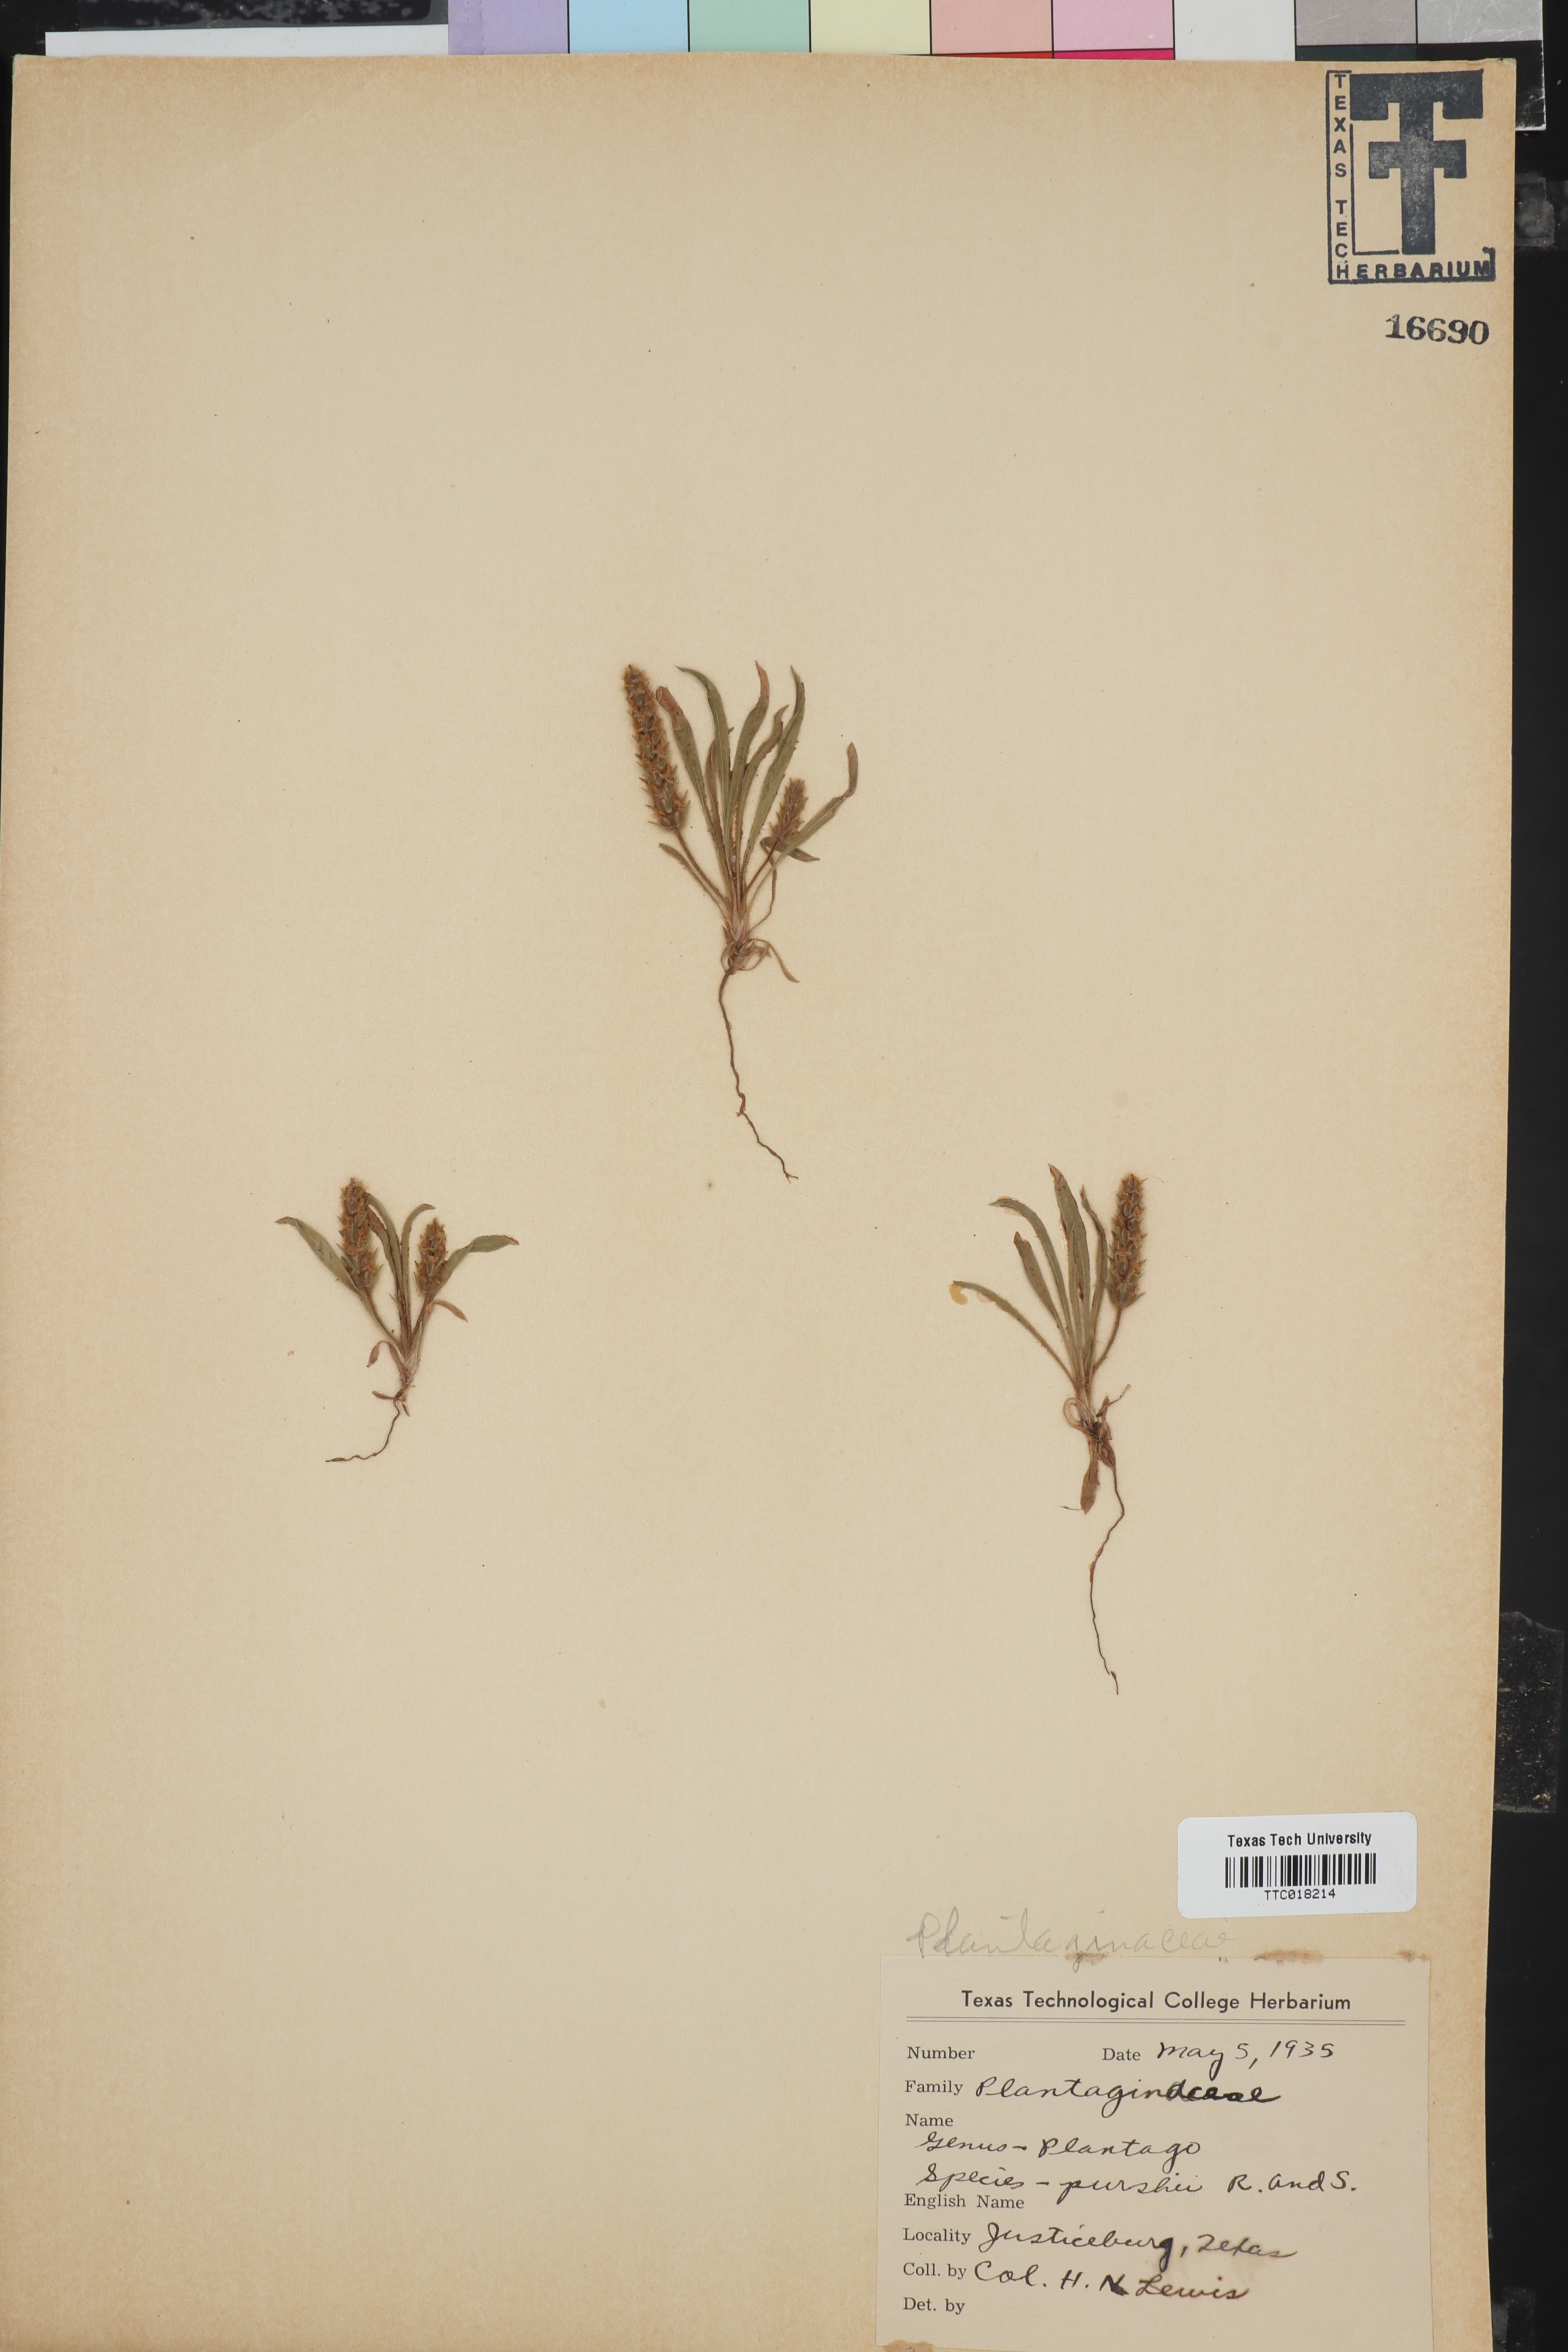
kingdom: Plantae
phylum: Tracheophyta
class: Magnoliopsida
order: Lamiales
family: Plantaginaceae
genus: Plantago
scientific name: Plantago patagonica
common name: Patagonia indian-wheat
